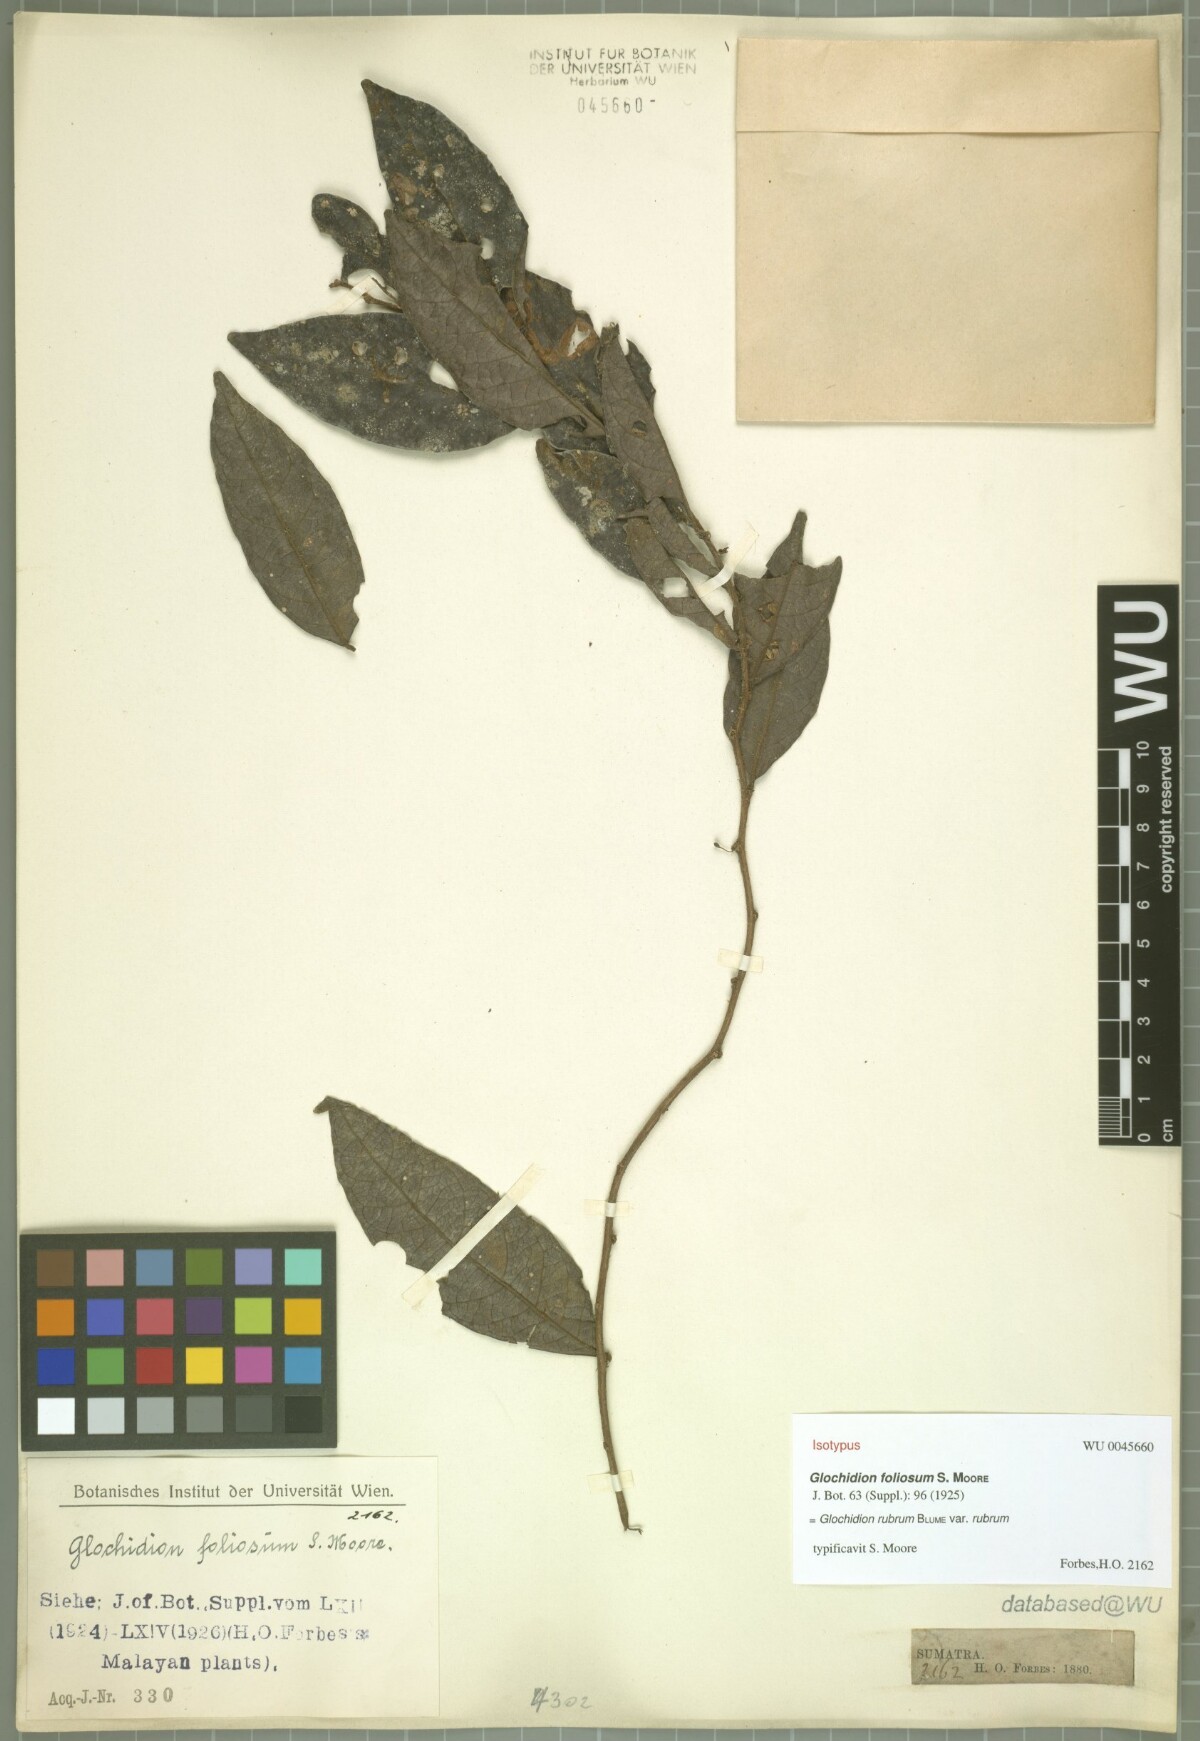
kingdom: Plantae
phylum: Tracheophyta
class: Magnoliopsida
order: Malpighiales
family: Phyllanthaceae
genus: Glochidion
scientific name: Glochidion rubrum
